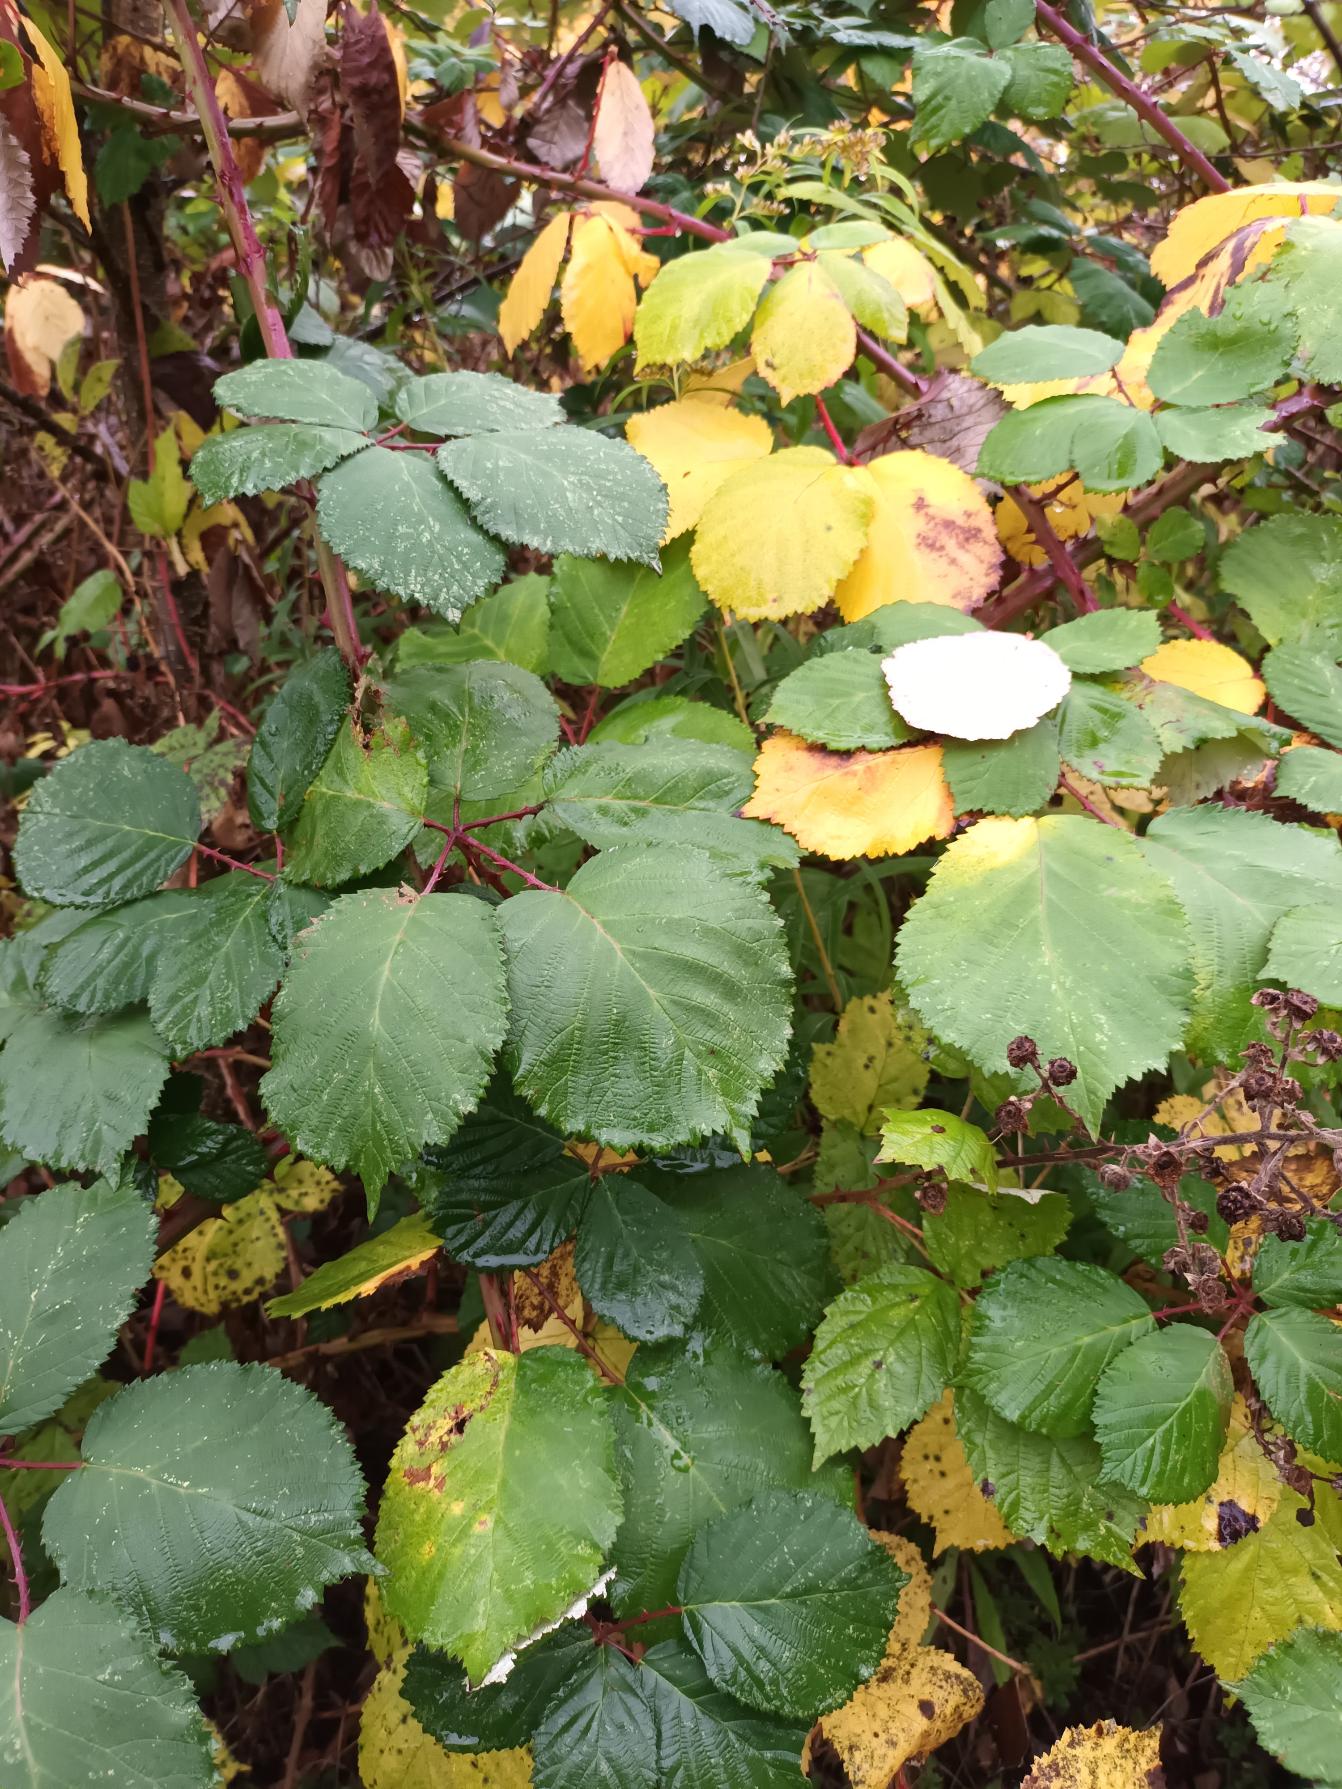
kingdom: Plantae
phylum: Tracheophyta
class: Magnoliopsida
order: Rosales
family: Rosaceae
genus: Rubus
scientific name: Rubus armeniacus
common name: Armensk brombær
